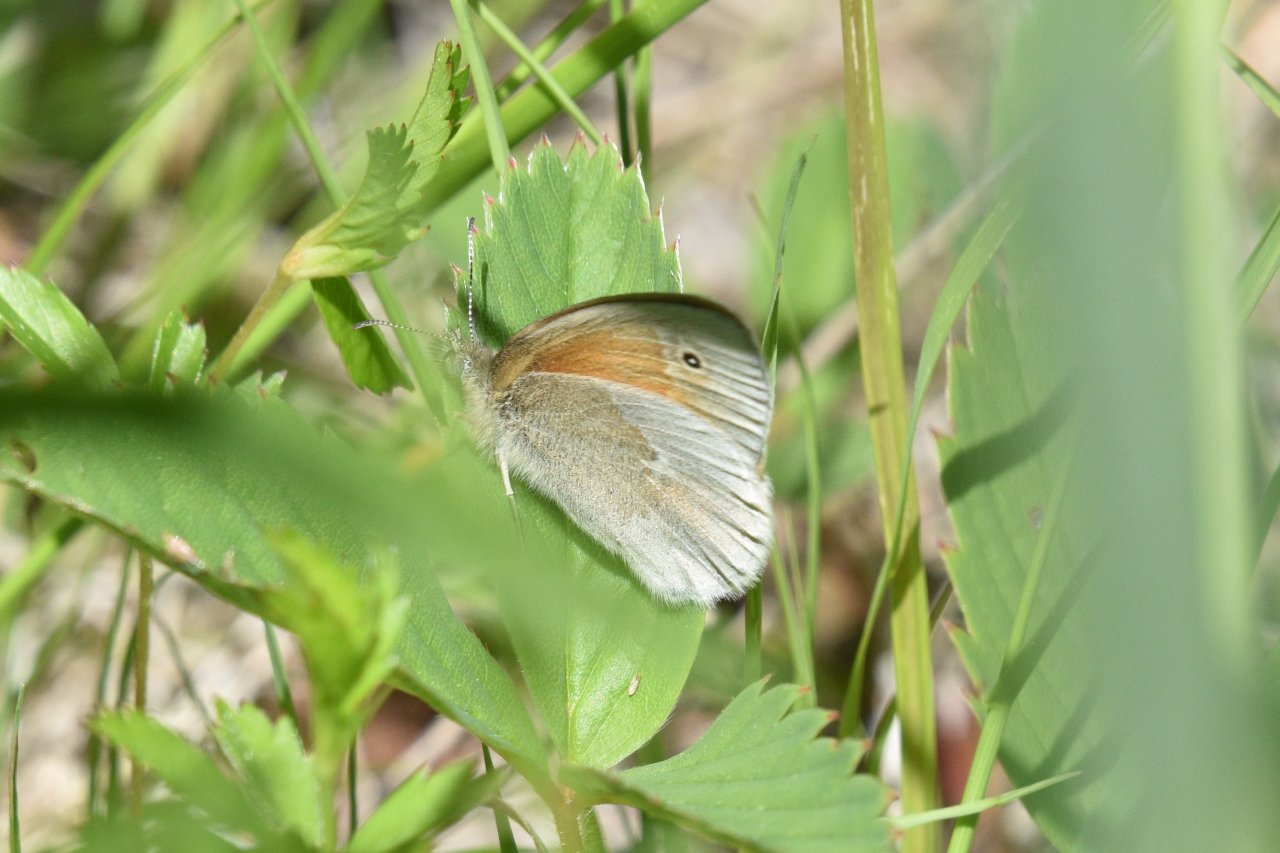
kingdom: Animalia
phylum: Arthropoda
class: Insecta
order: Lepidoptera
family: Nymphalidae
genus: Coenonympha
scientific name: Coenonympha tullia
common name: Large Heath
